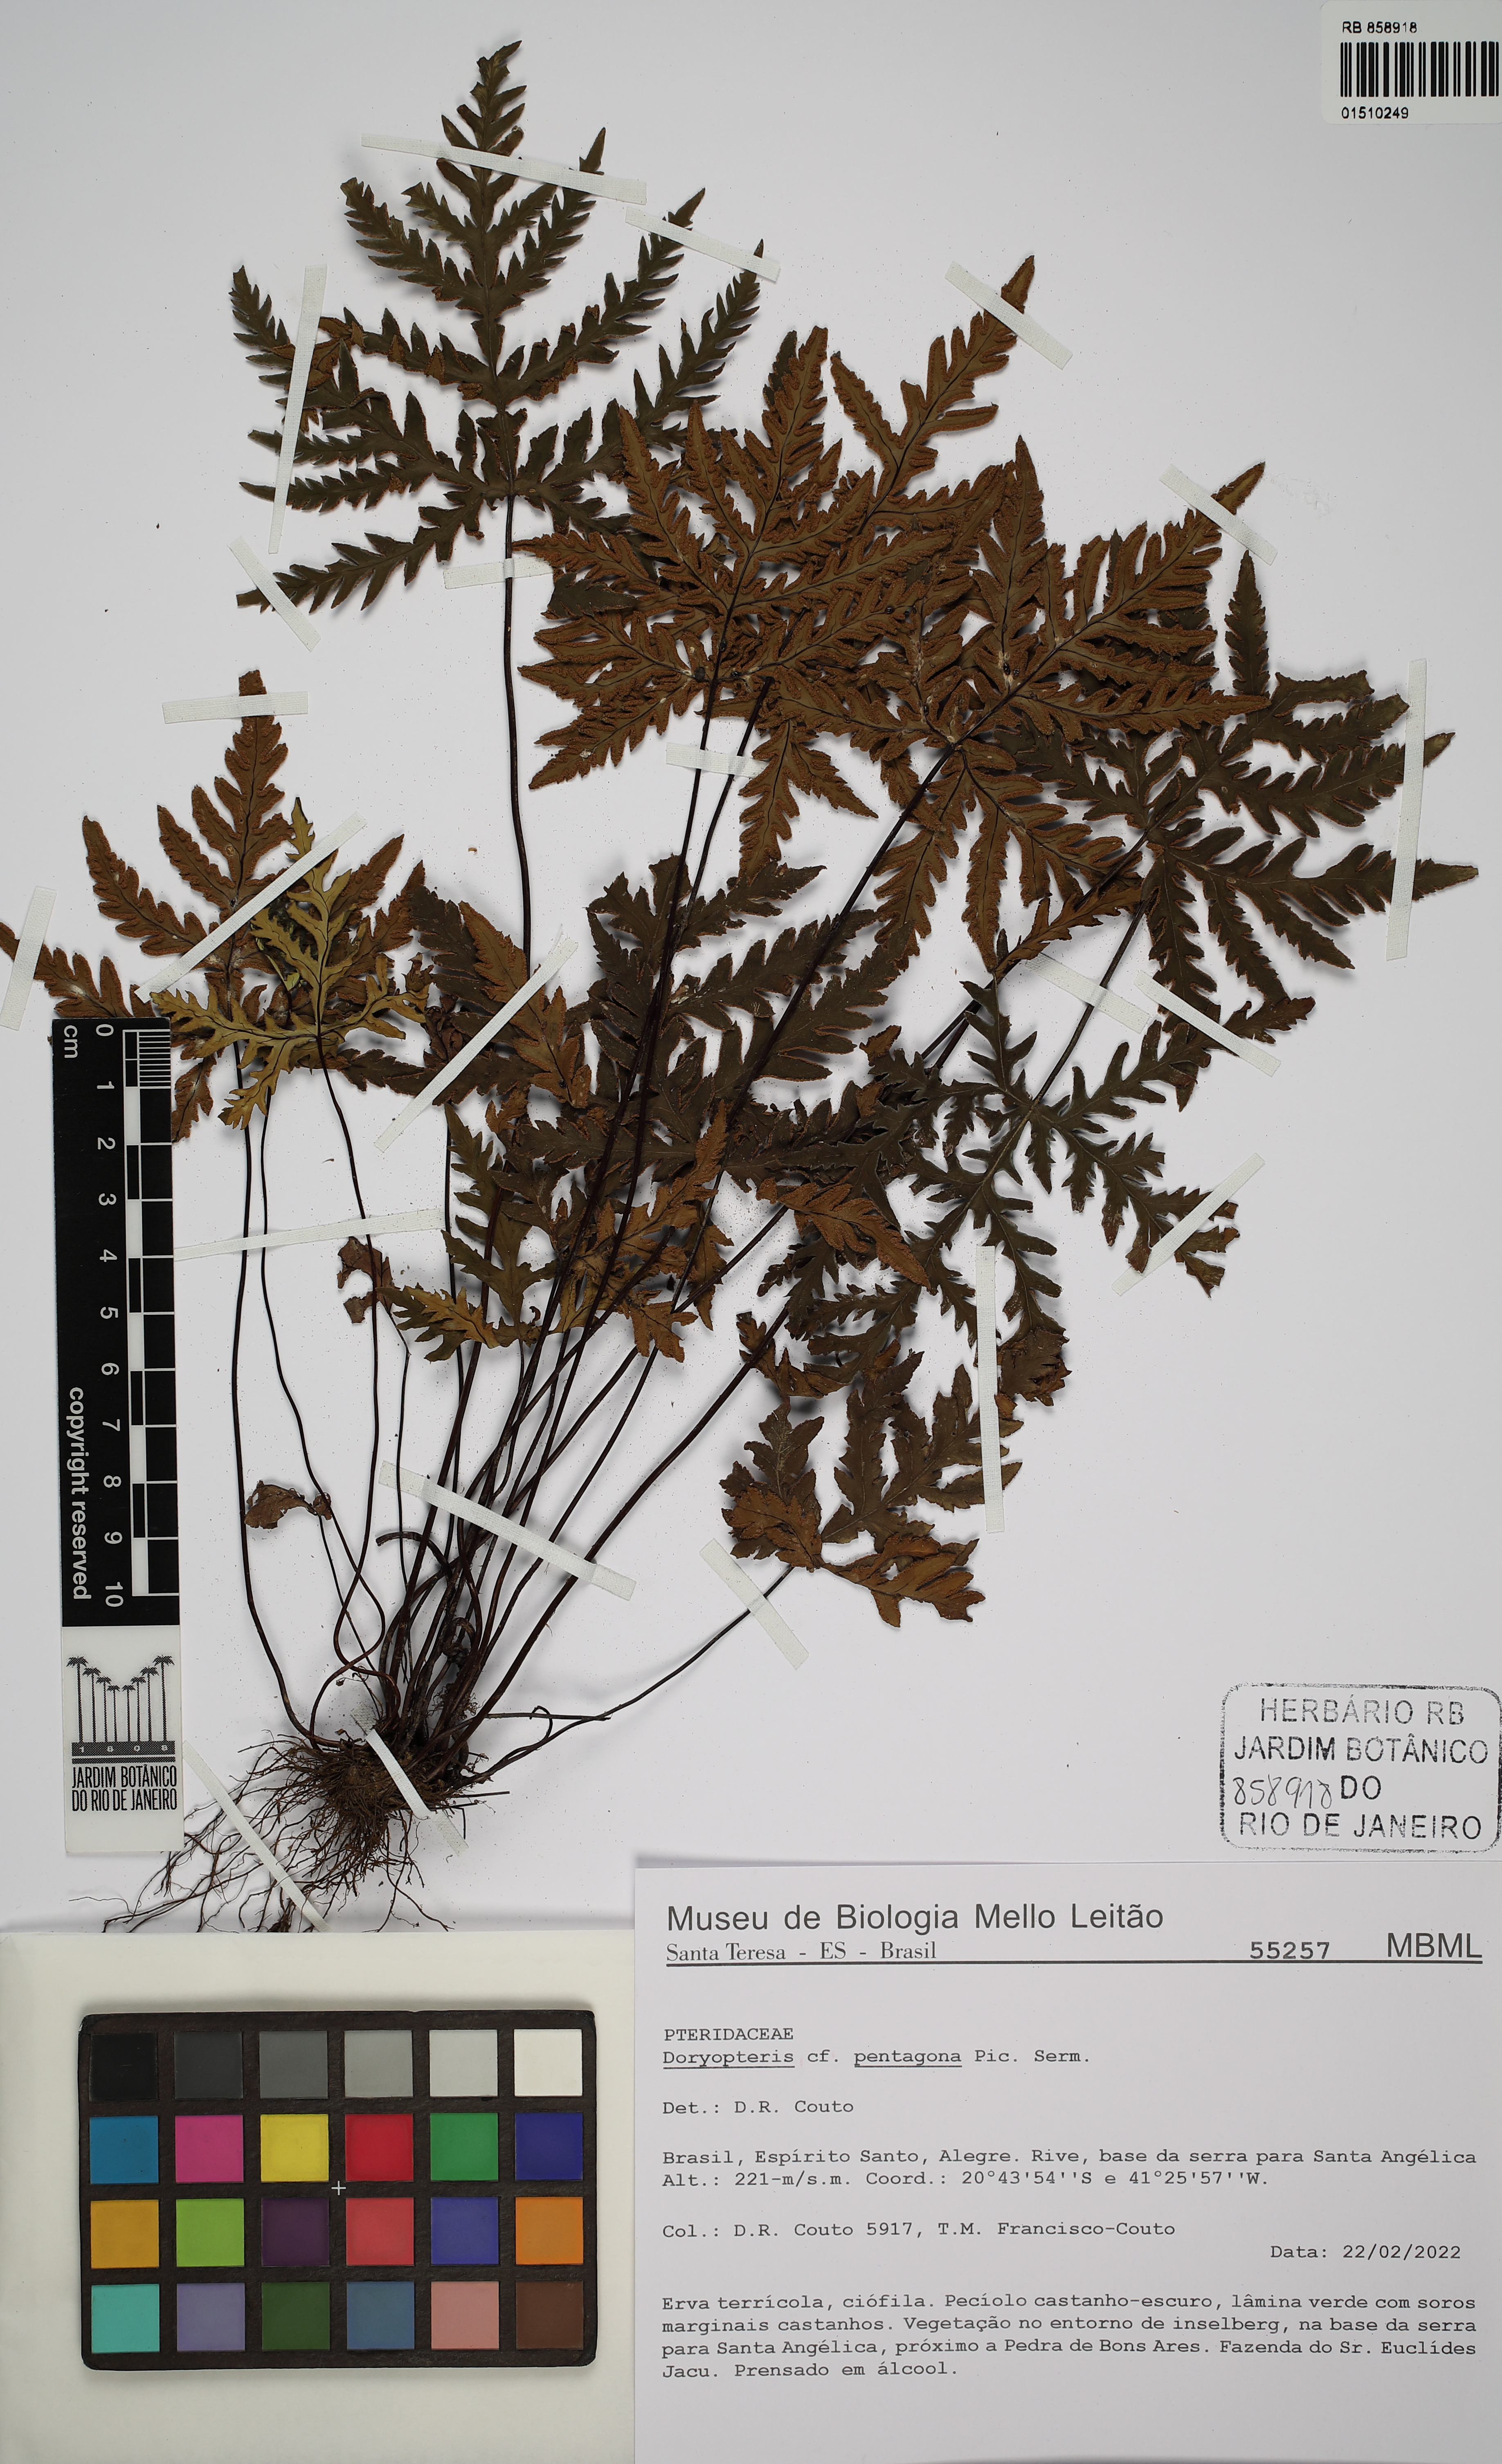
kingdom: Plantae
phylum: Tracheophyta
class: Polypodiopsida
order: Polypodiales
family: Pteridaceae
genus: Doryopteris
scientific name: Doryopteris pentagona
